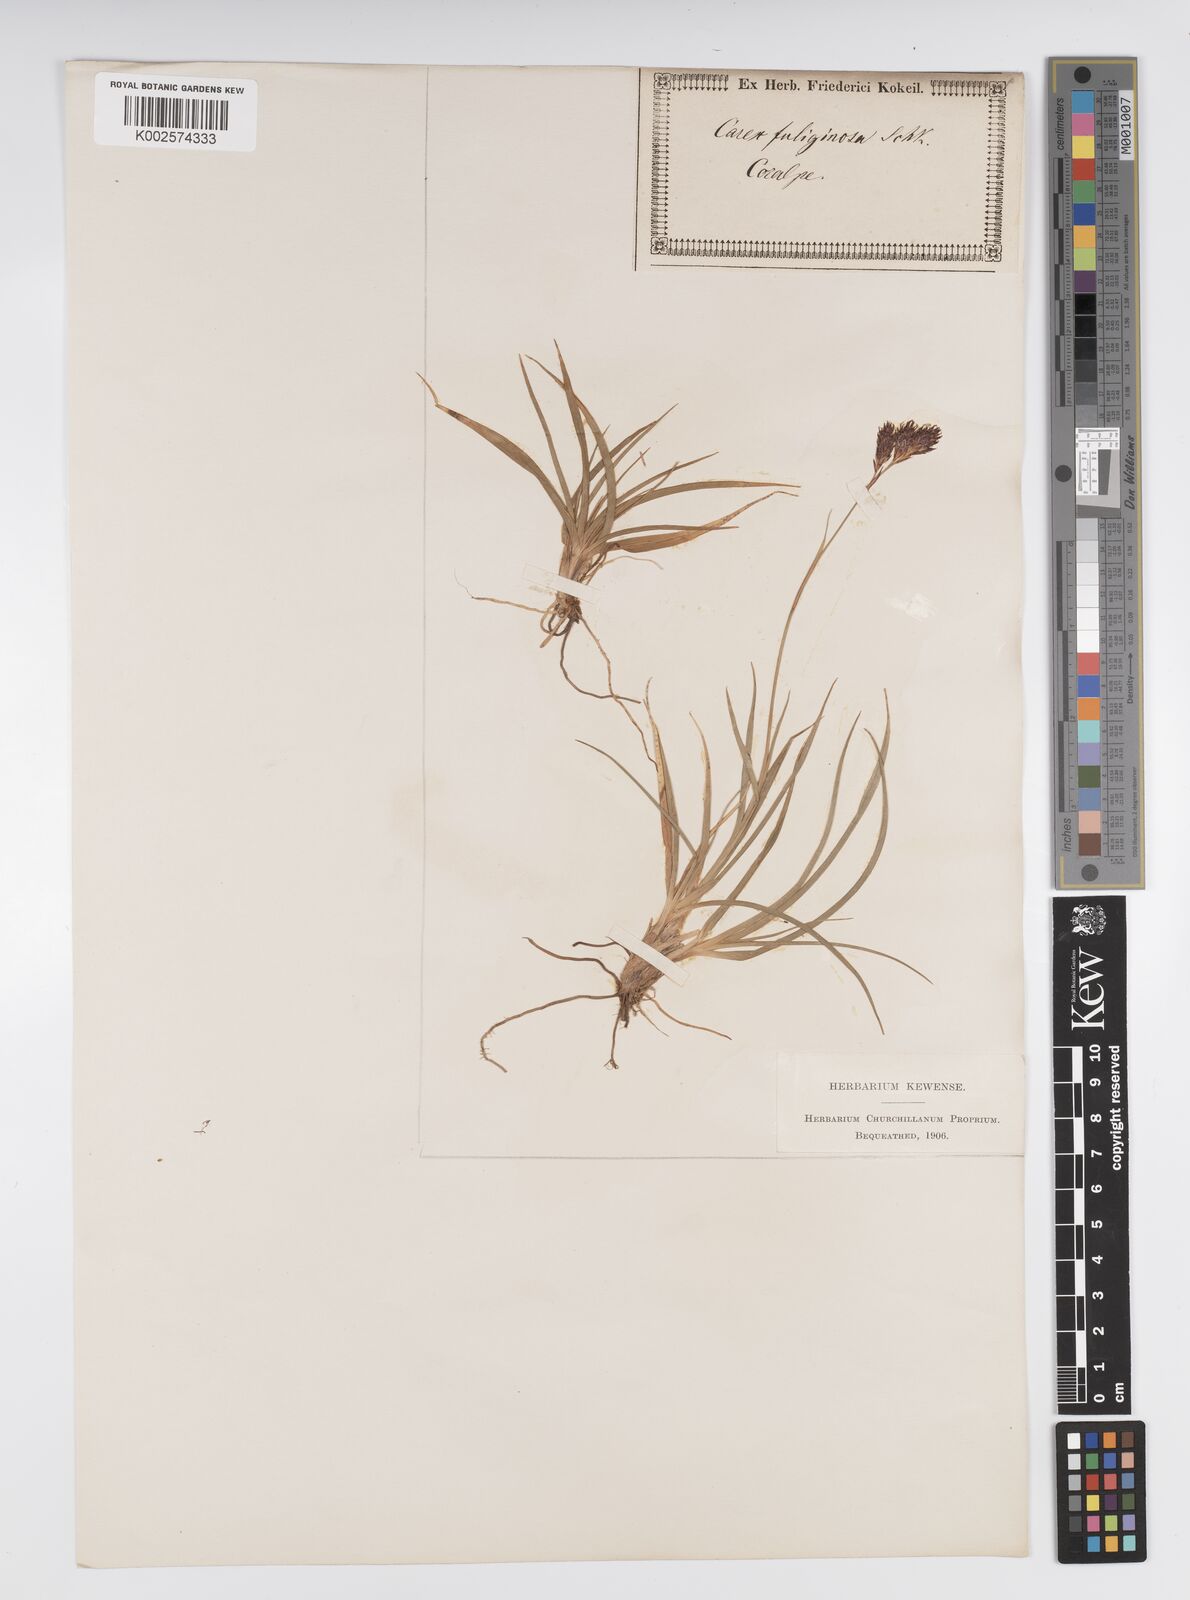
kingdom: Plantae
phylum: Tracheophyta
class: Liliopsida
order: Poales
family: Cyperaceae
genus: Carex
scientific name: Carex fuliginosa
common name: Few-flowered sedge
